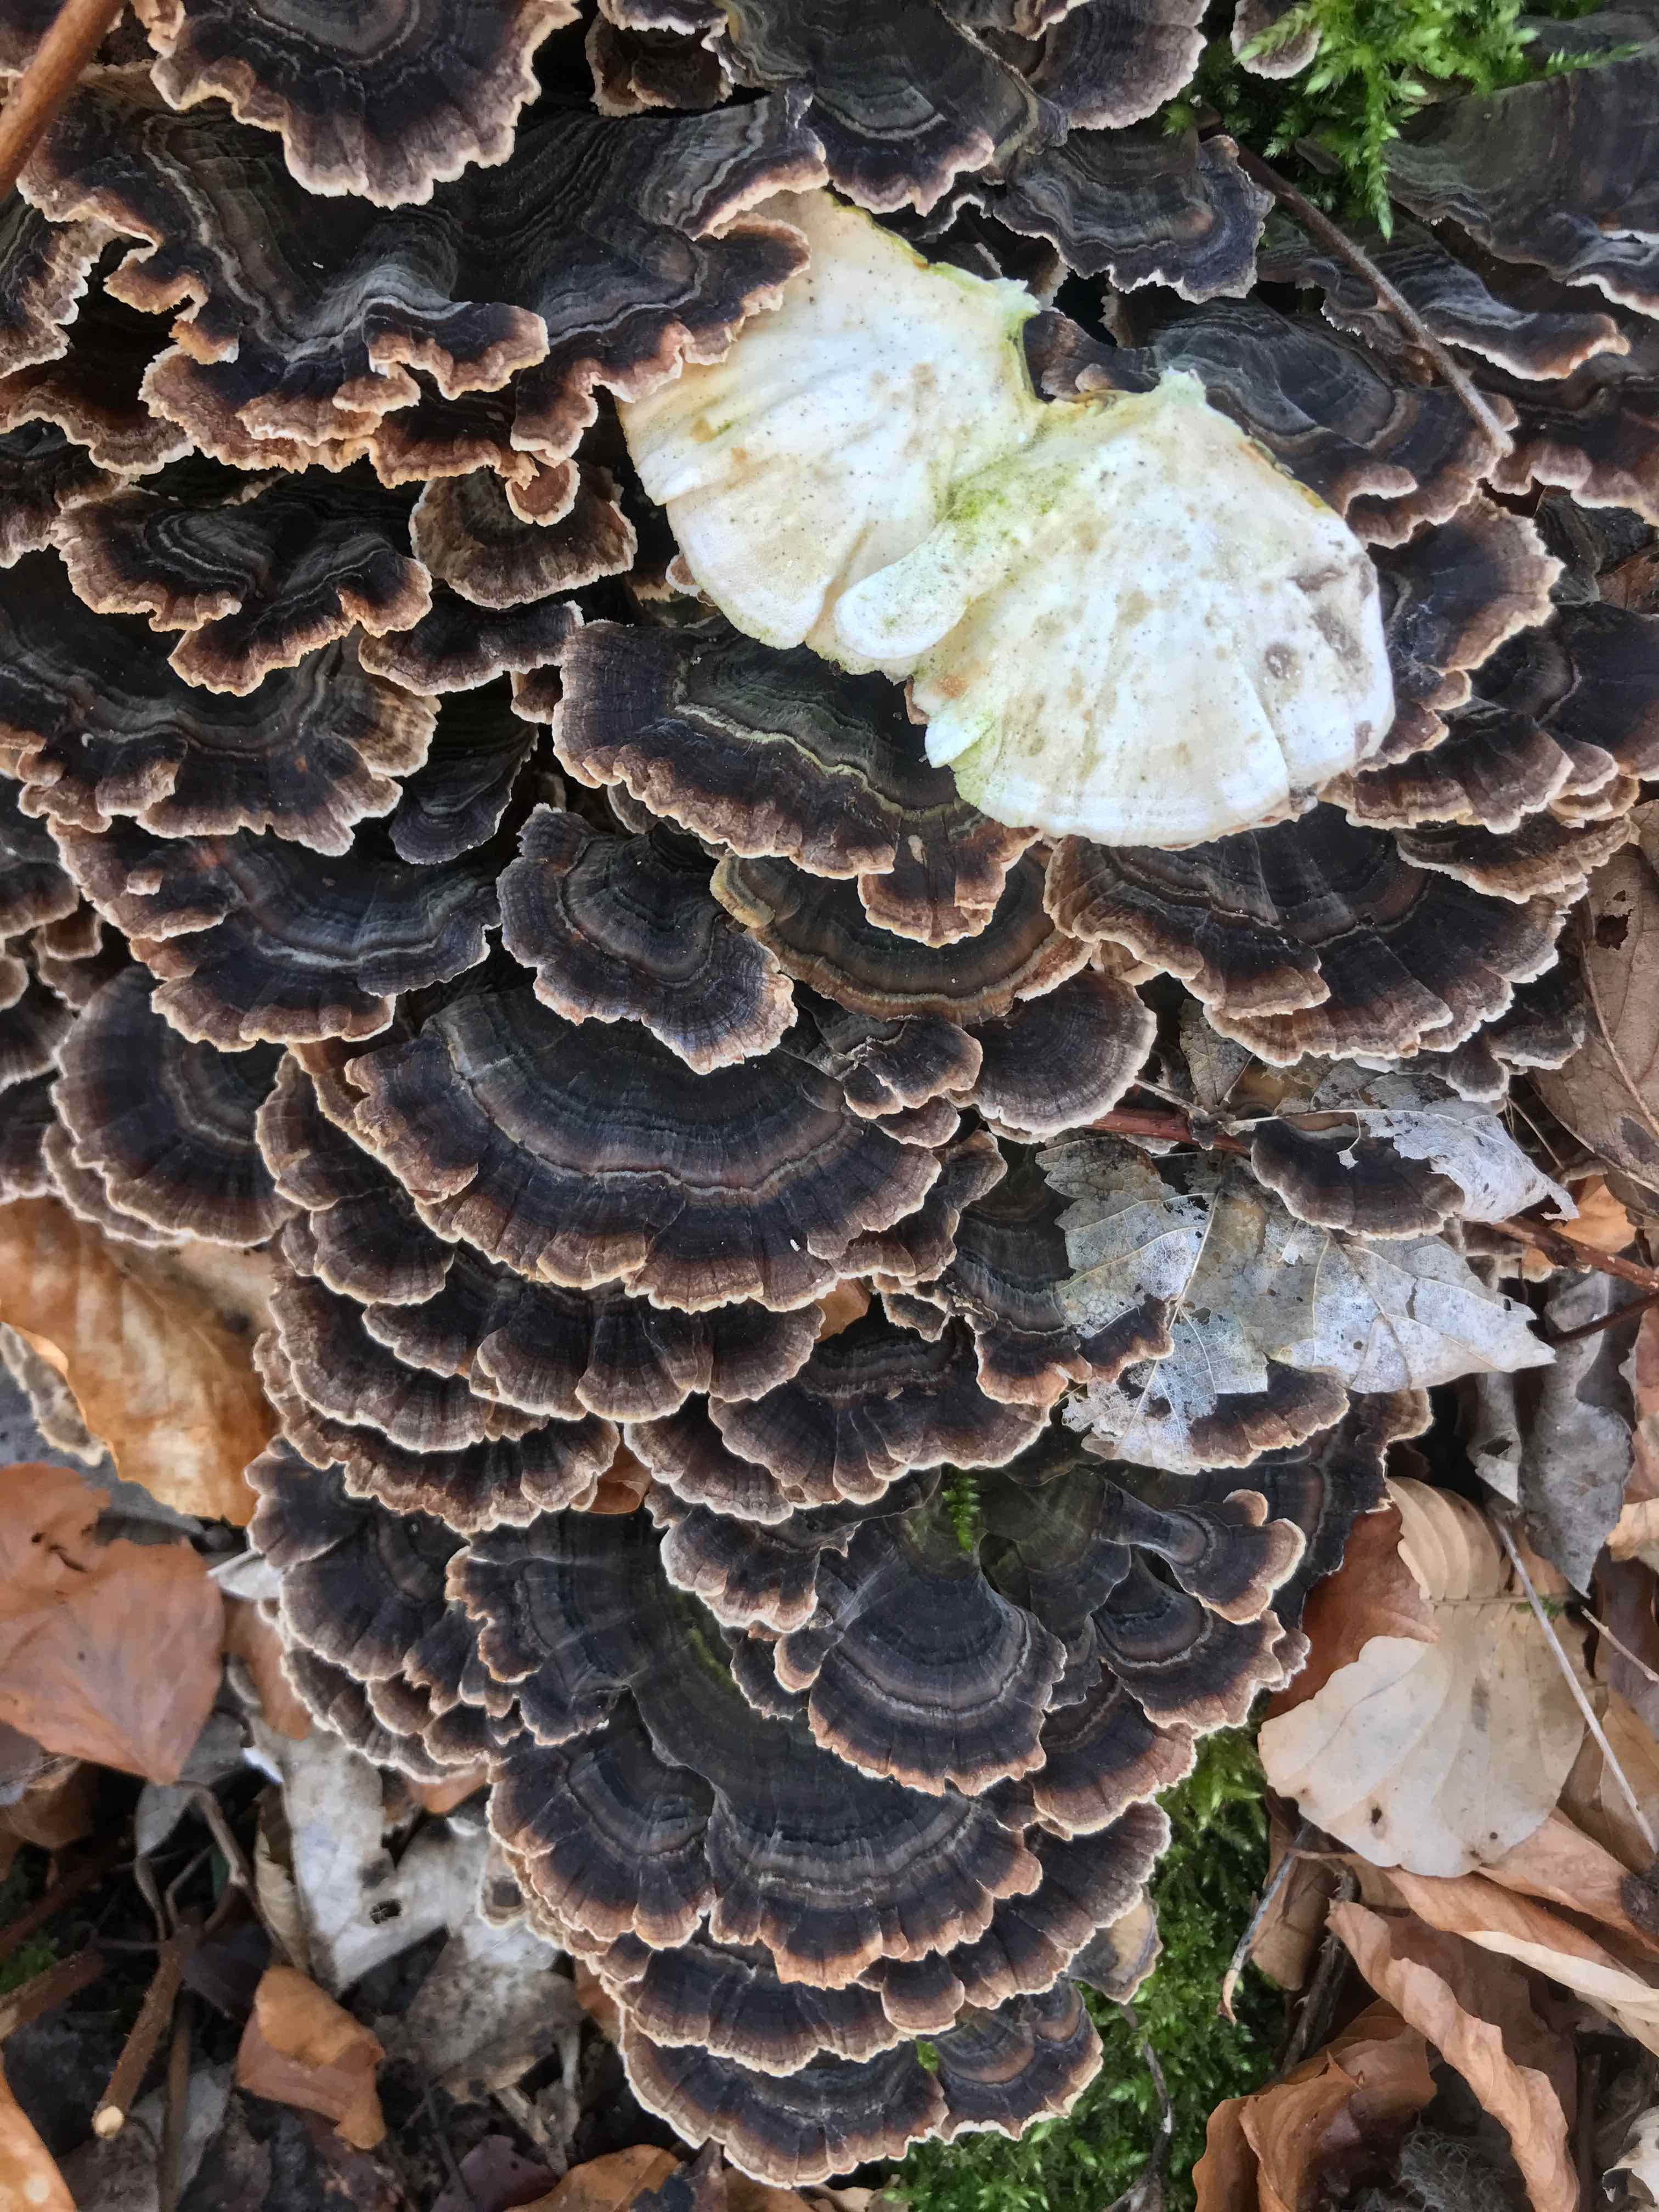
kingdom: Fungi
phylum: Basidiomycota
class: Agaricomycetes
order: Polyporales
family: Polyporaceae
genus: Trametes
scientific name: Trametes versicolor
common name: broget læderporesvamp
